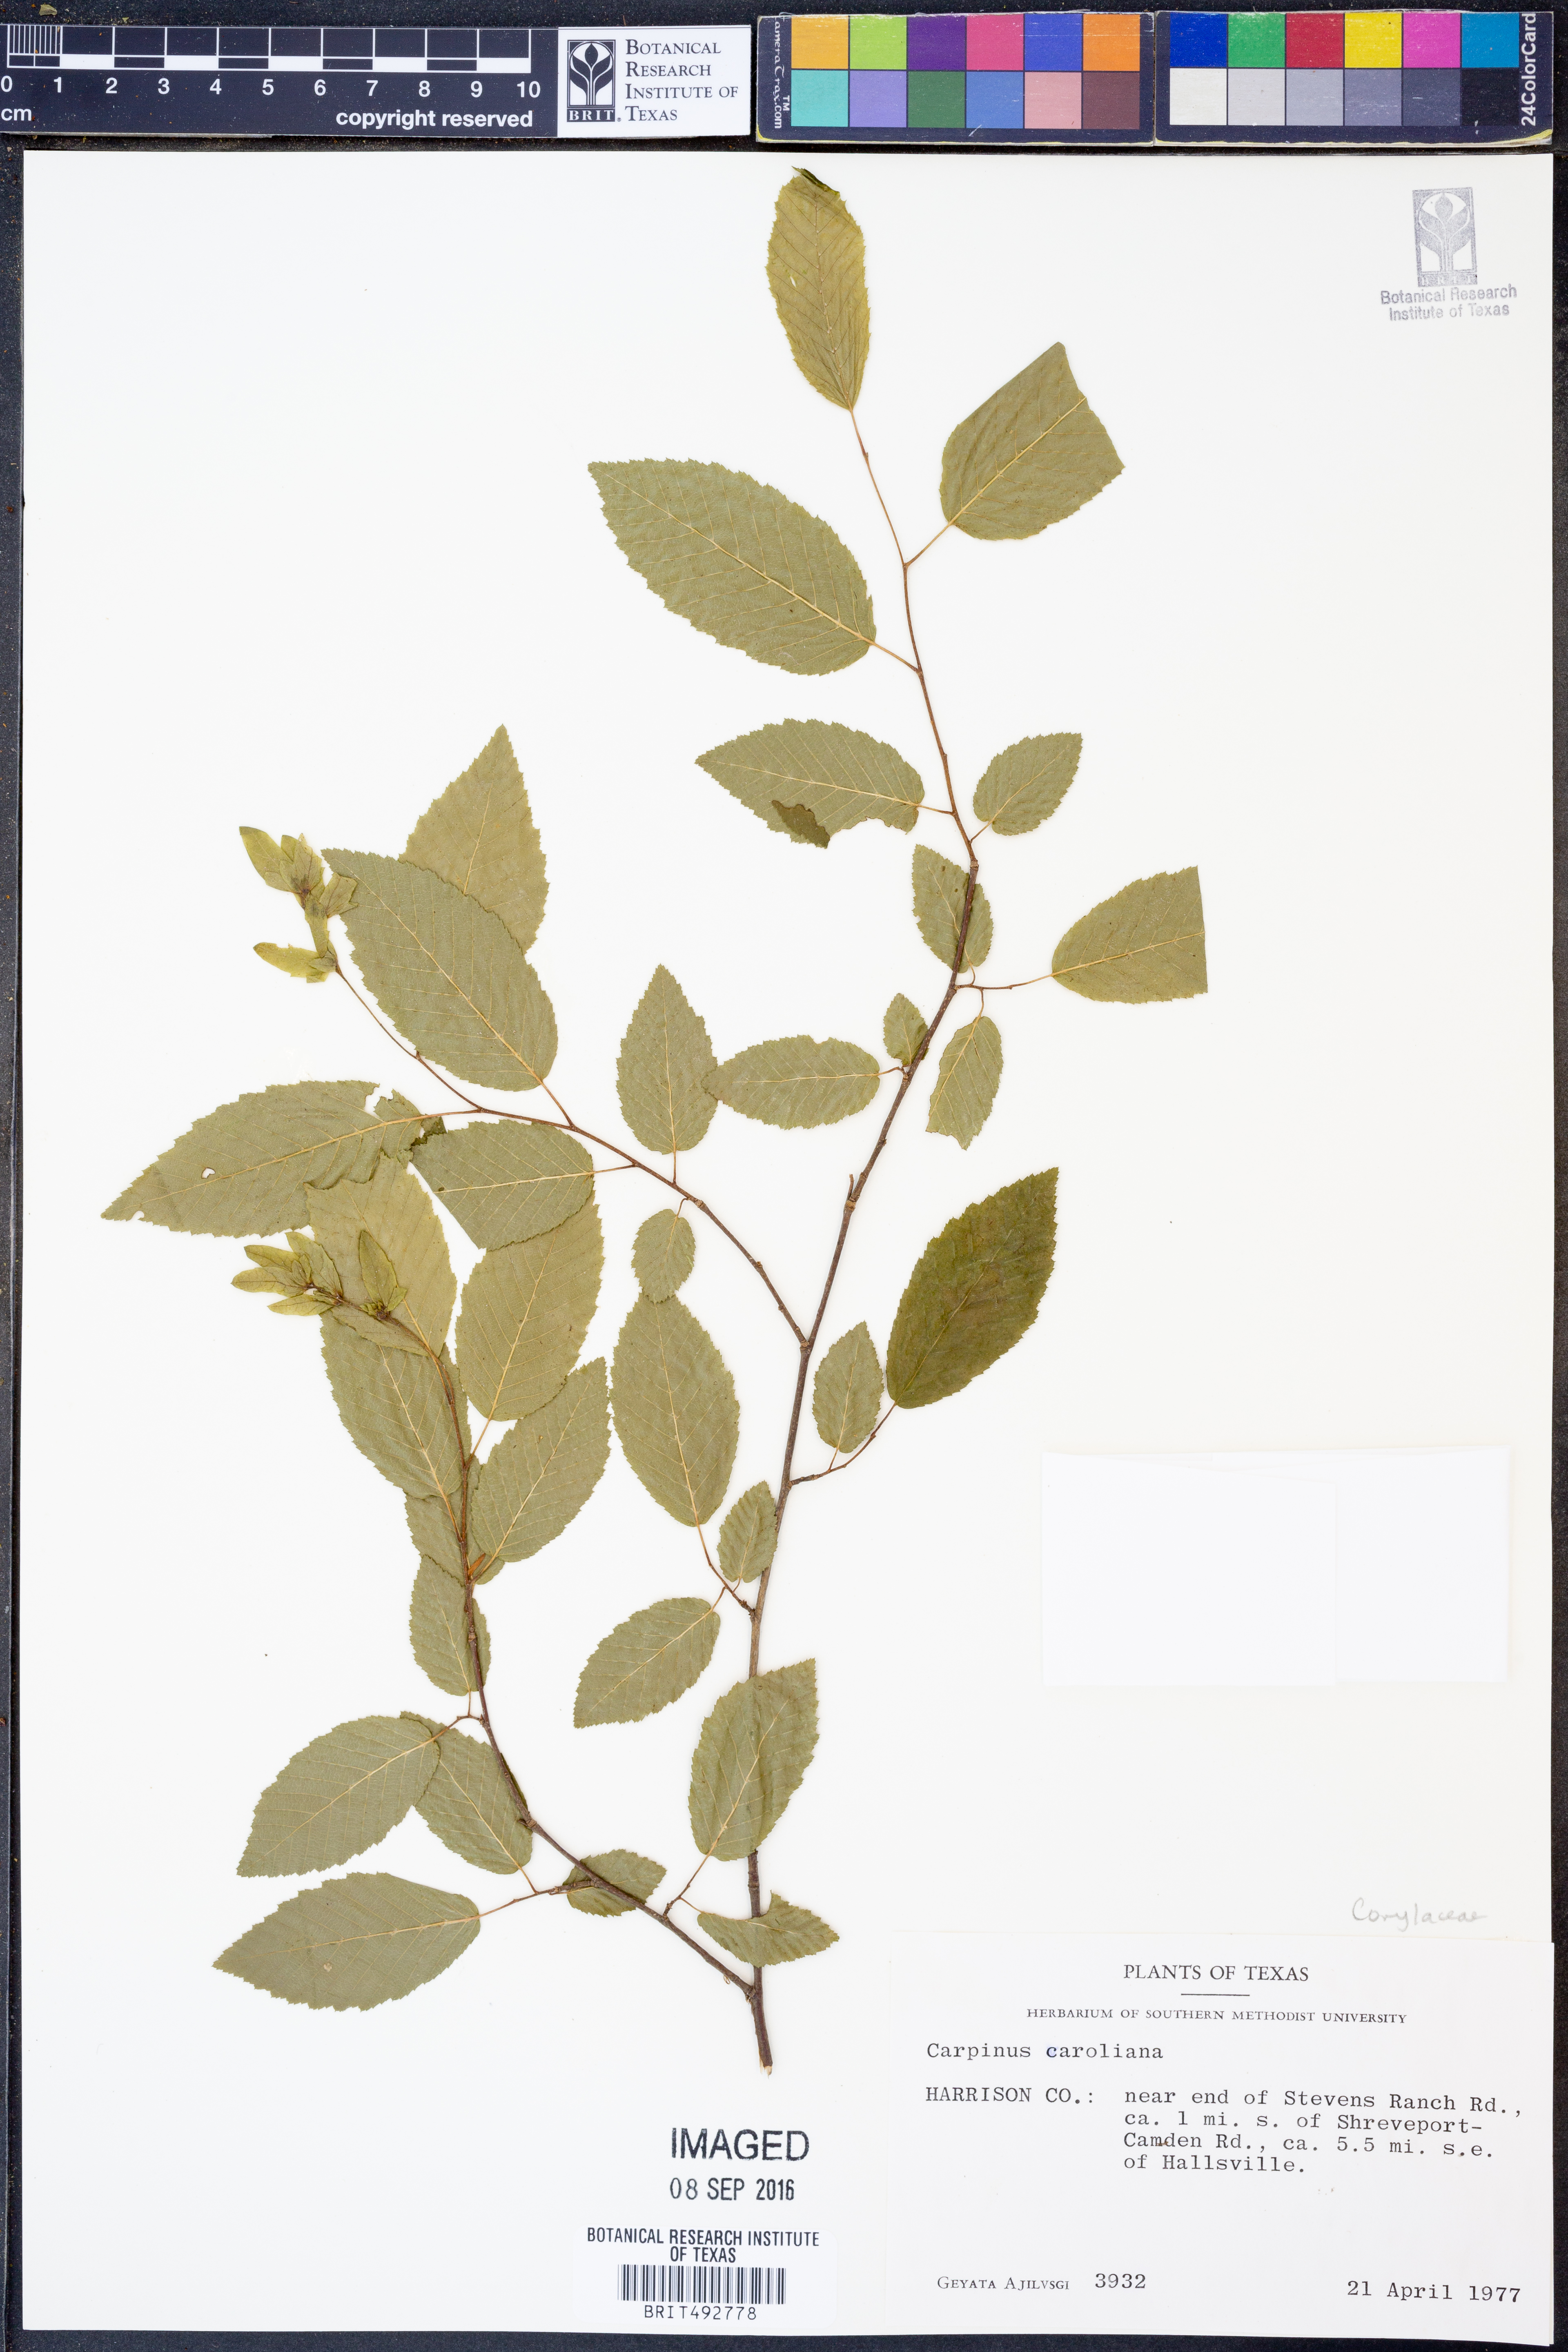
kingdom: Plantae
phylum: Tracheophyta
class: Magnoliopsida
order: Fagales
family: Betulaceae
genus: Carpinus
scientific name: Carpinus caroliniana
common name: American hornbeam
